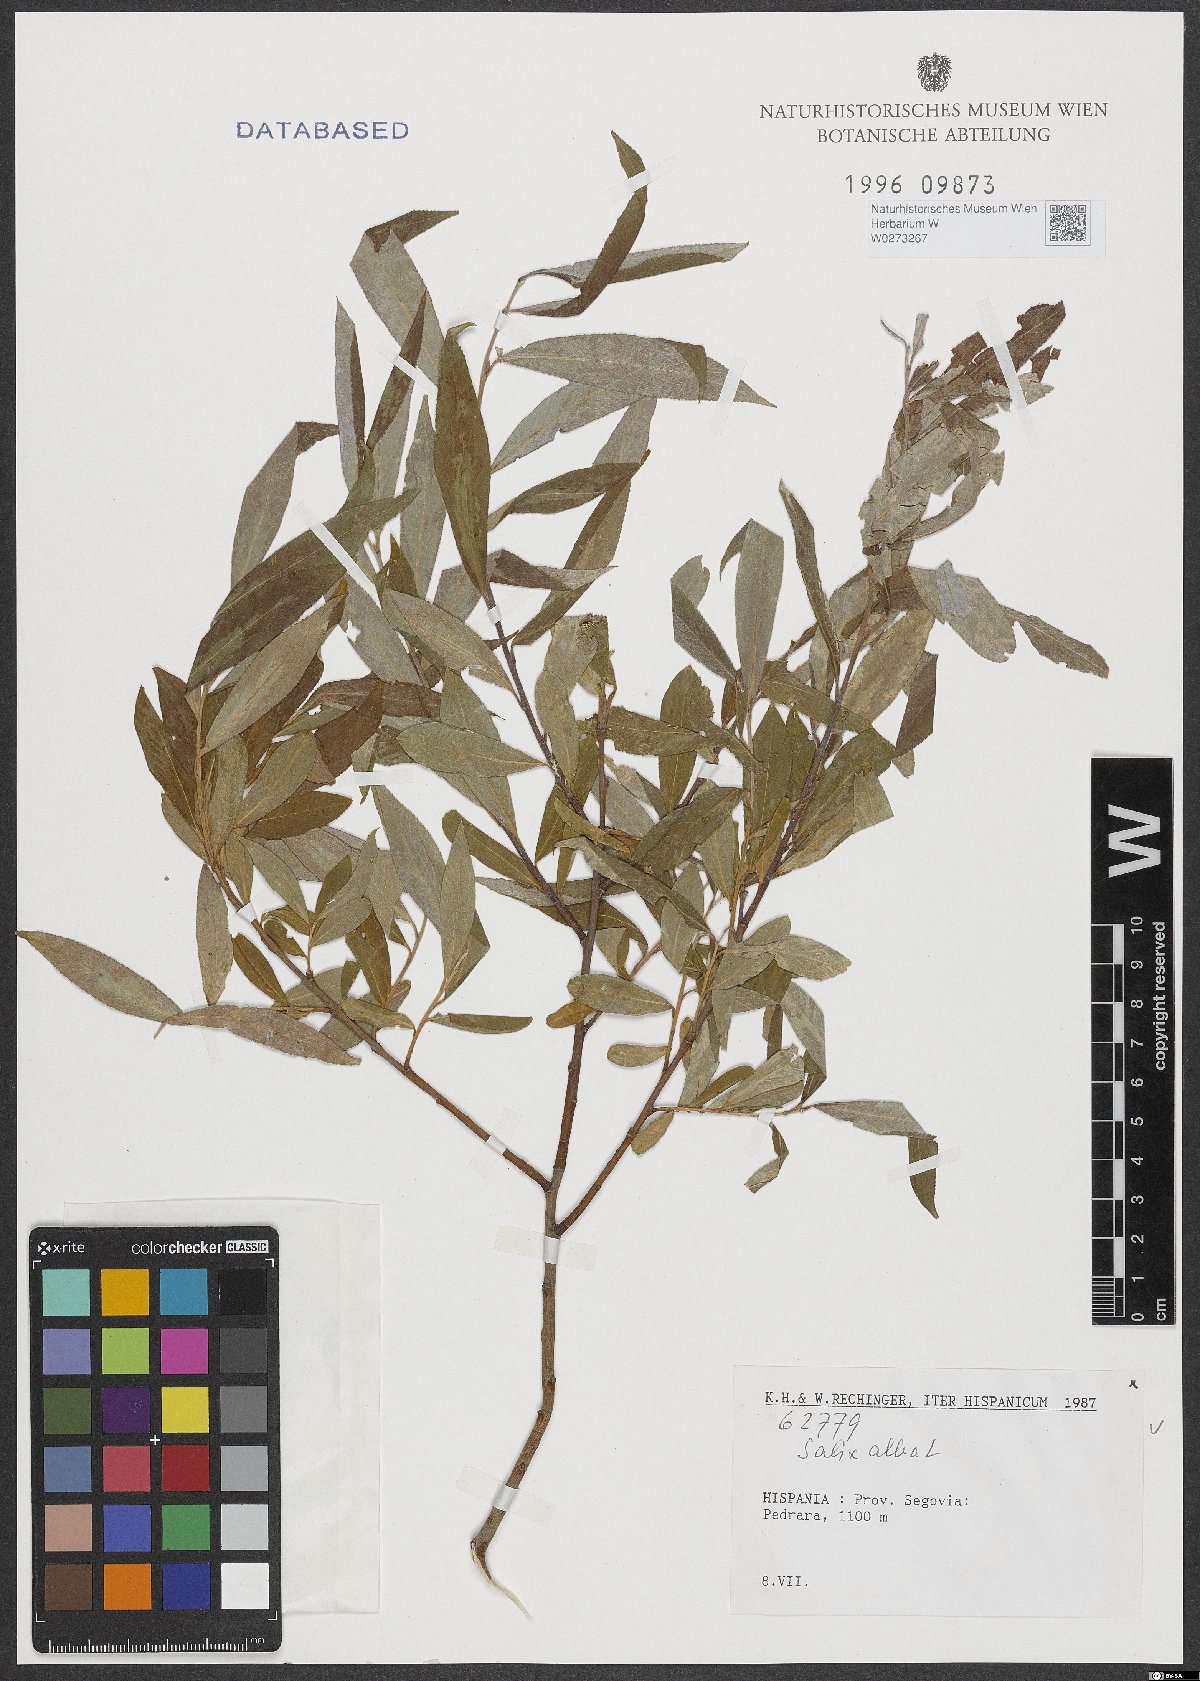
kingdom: Plantae
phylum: Tracheophyta
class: Magnoliopsida
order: Malpighiales
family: Salicaceae
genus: Salix
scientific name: Salix alba
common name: White willow
